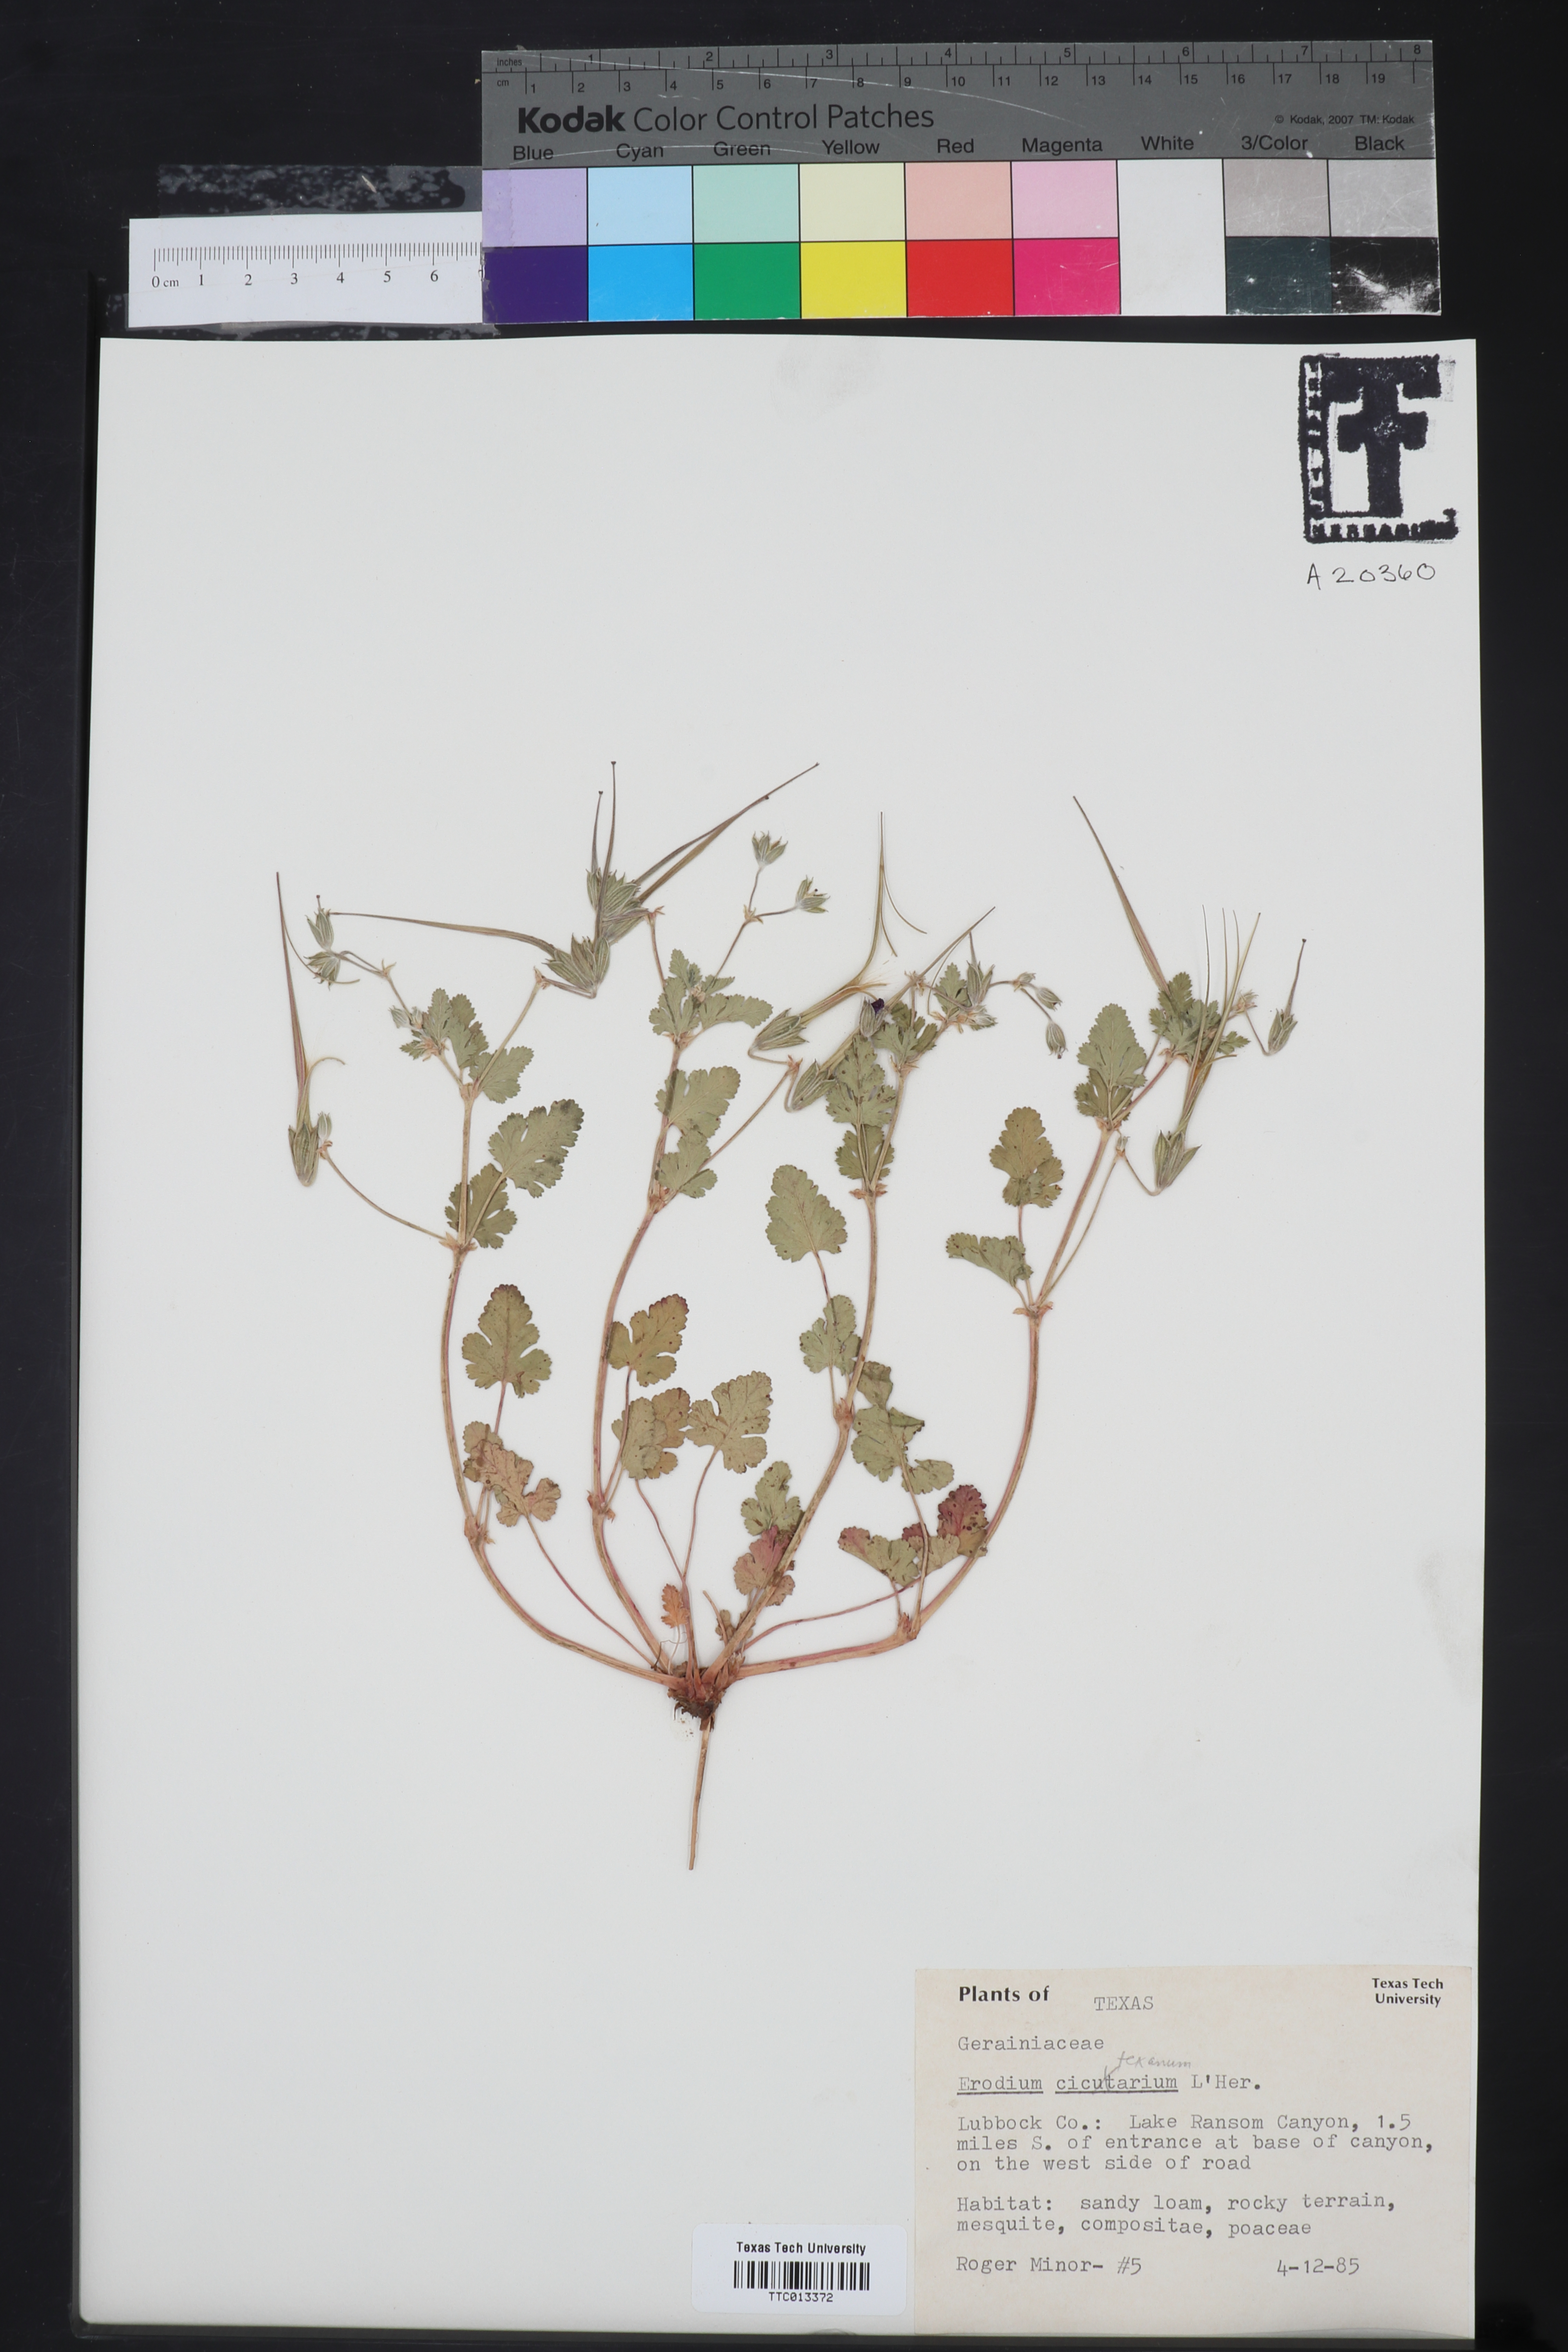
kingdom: Plantae
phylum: Tracheophyta
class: Magnoliopsida
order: Geraniales
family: Geraniaceae
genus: Erodium
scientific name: Erodium texanum
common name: Texas stork's-bill
